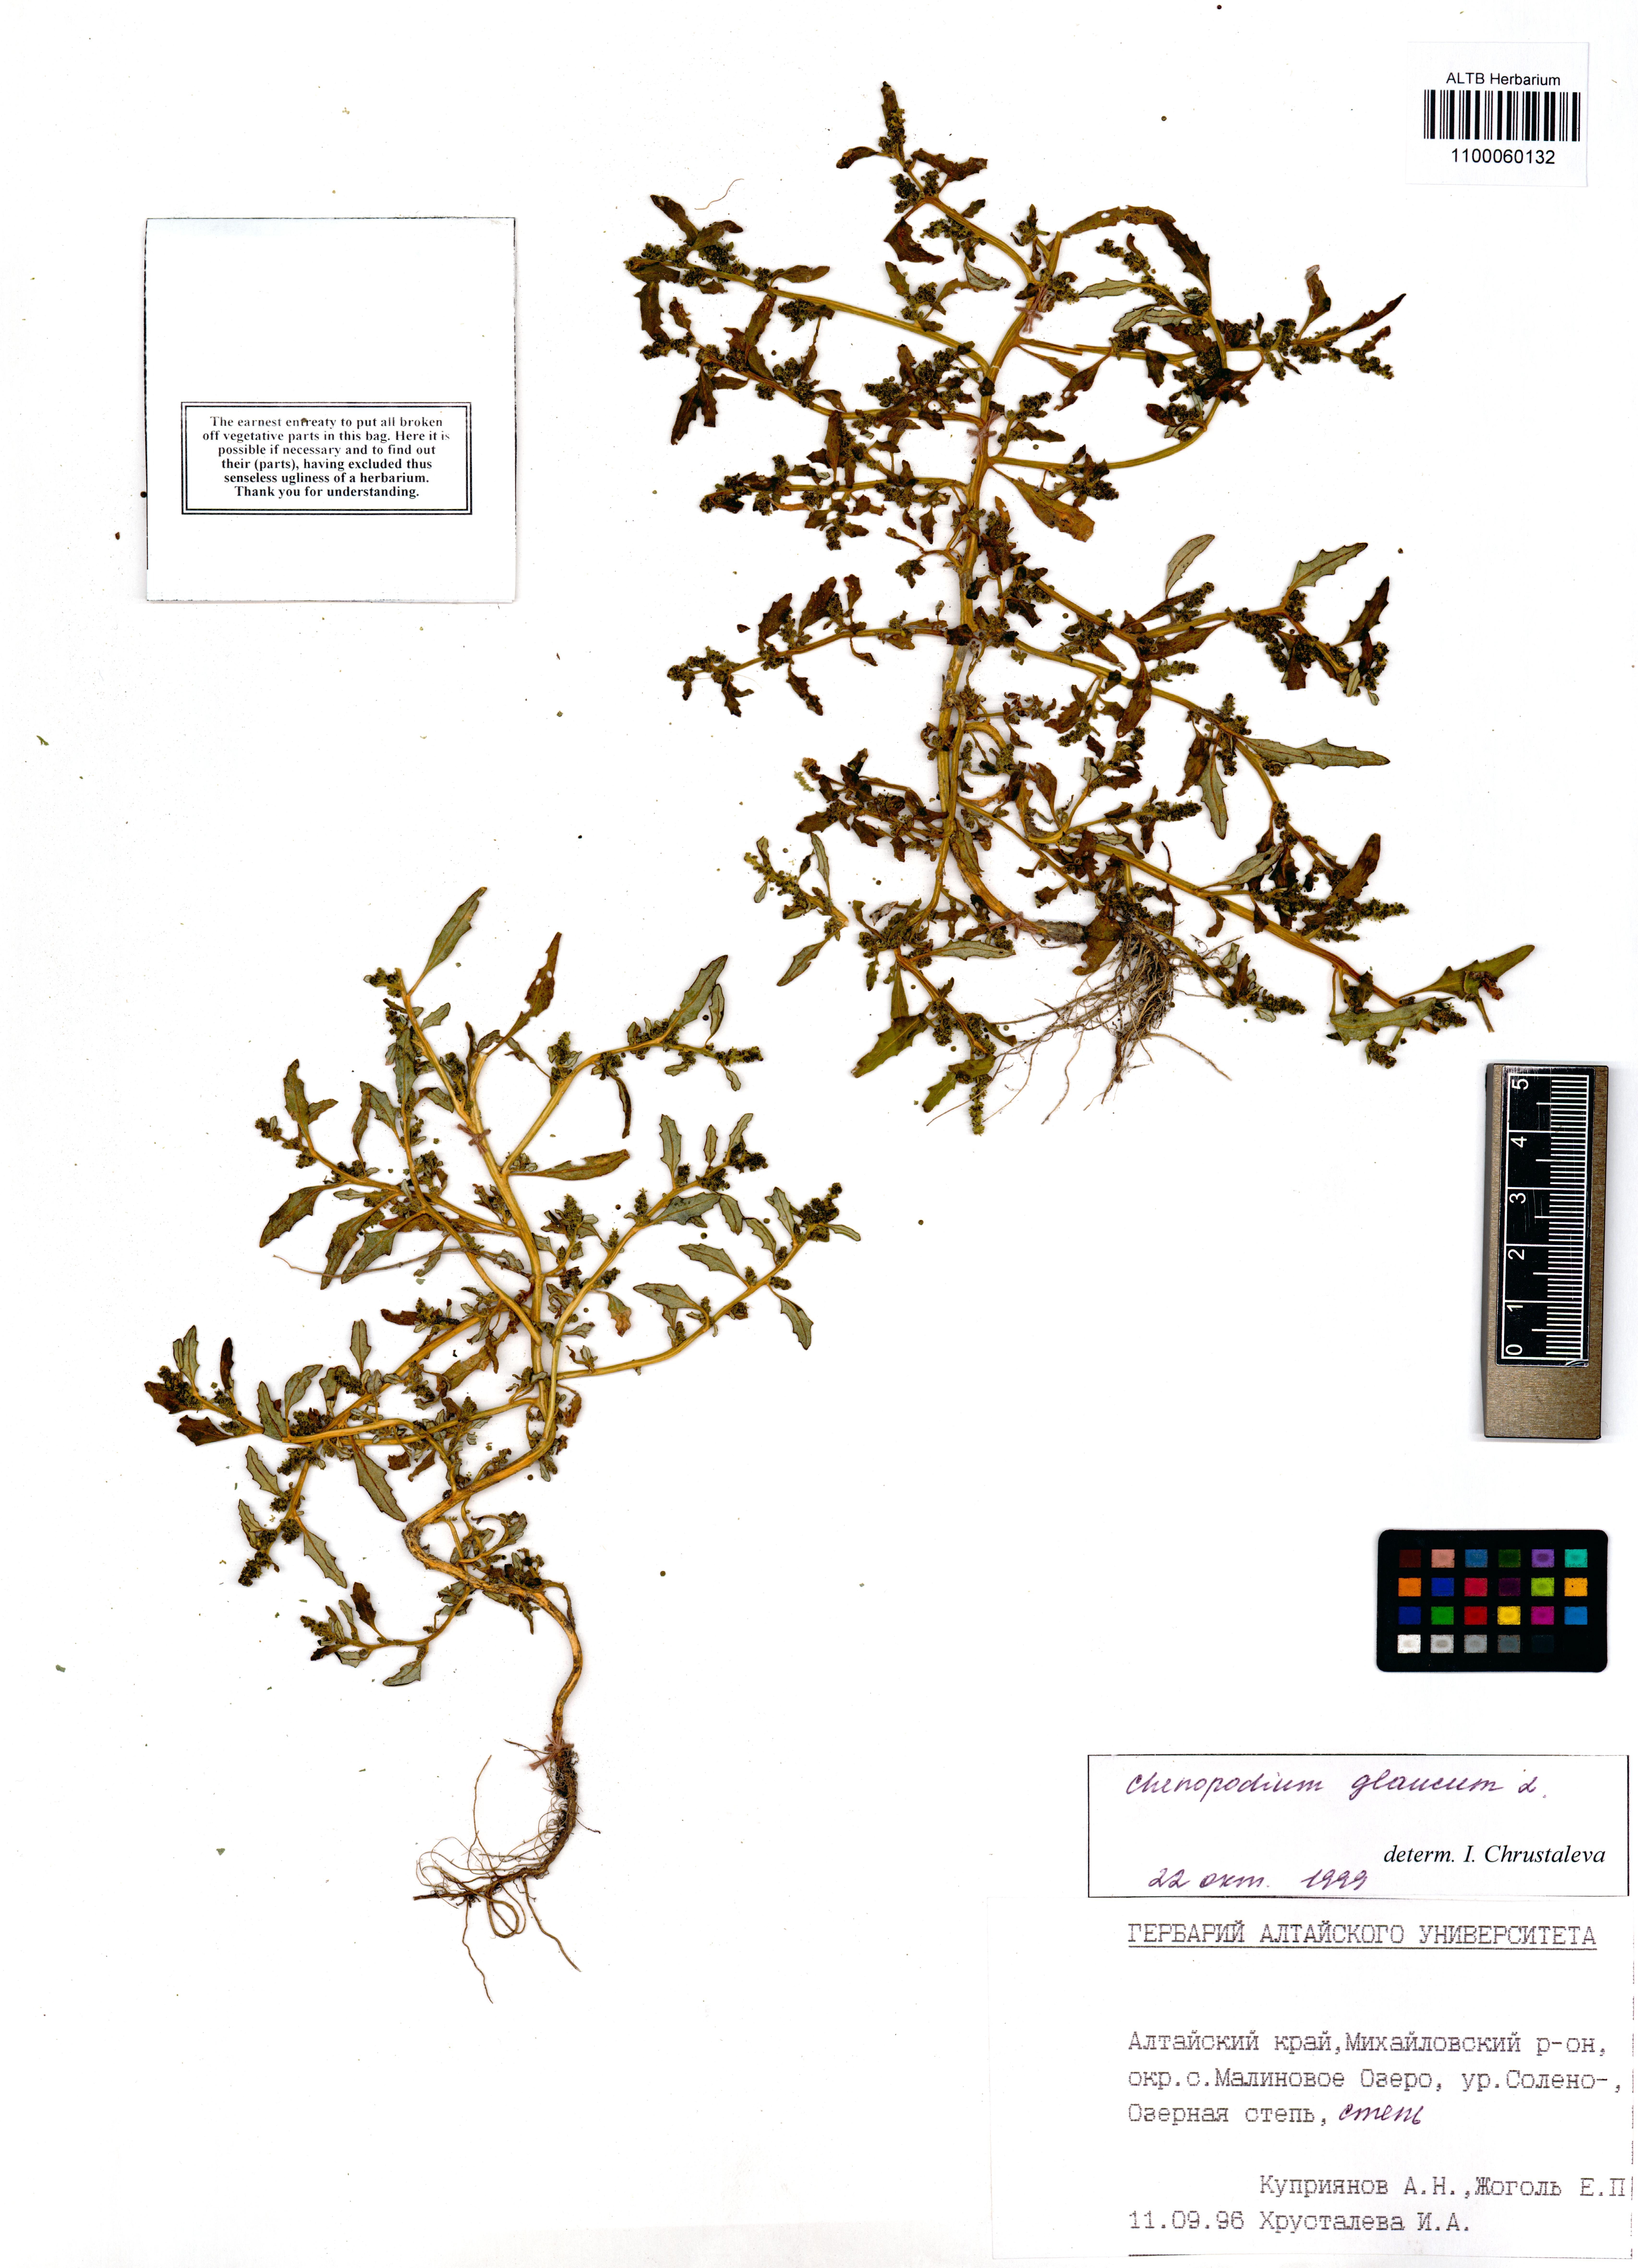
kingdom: Plantae
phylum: Tracheophyta
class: Magnoliopsida
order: Caryophyllales
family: Amaranthaceae
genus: Oxybasis
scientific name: Oxybasis glauca
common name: Glaucous goosefoot
